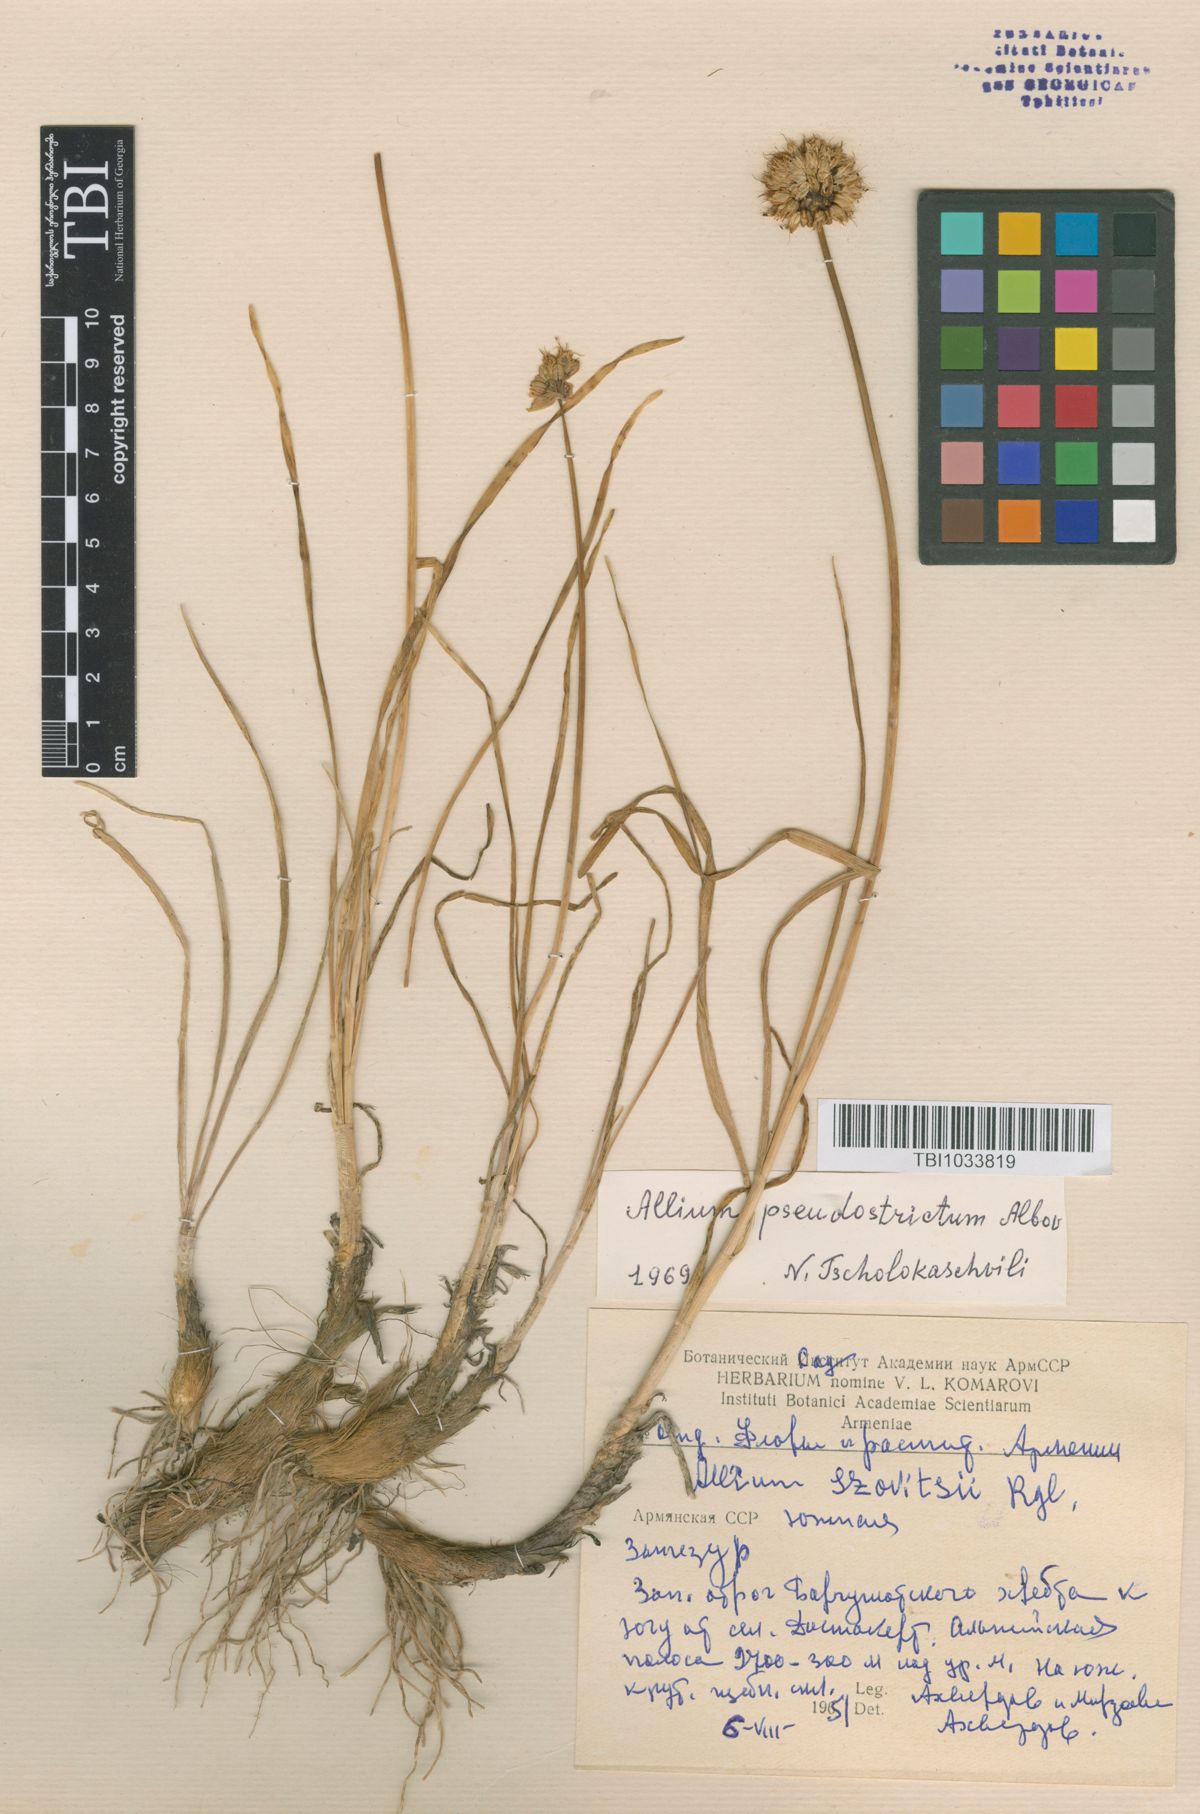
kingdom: Plantae
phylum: Tracheophyta
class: Liliopsida
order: Asparagales
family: Amaryllidaceae
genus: Allium
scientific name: Allium pseudostrictum
